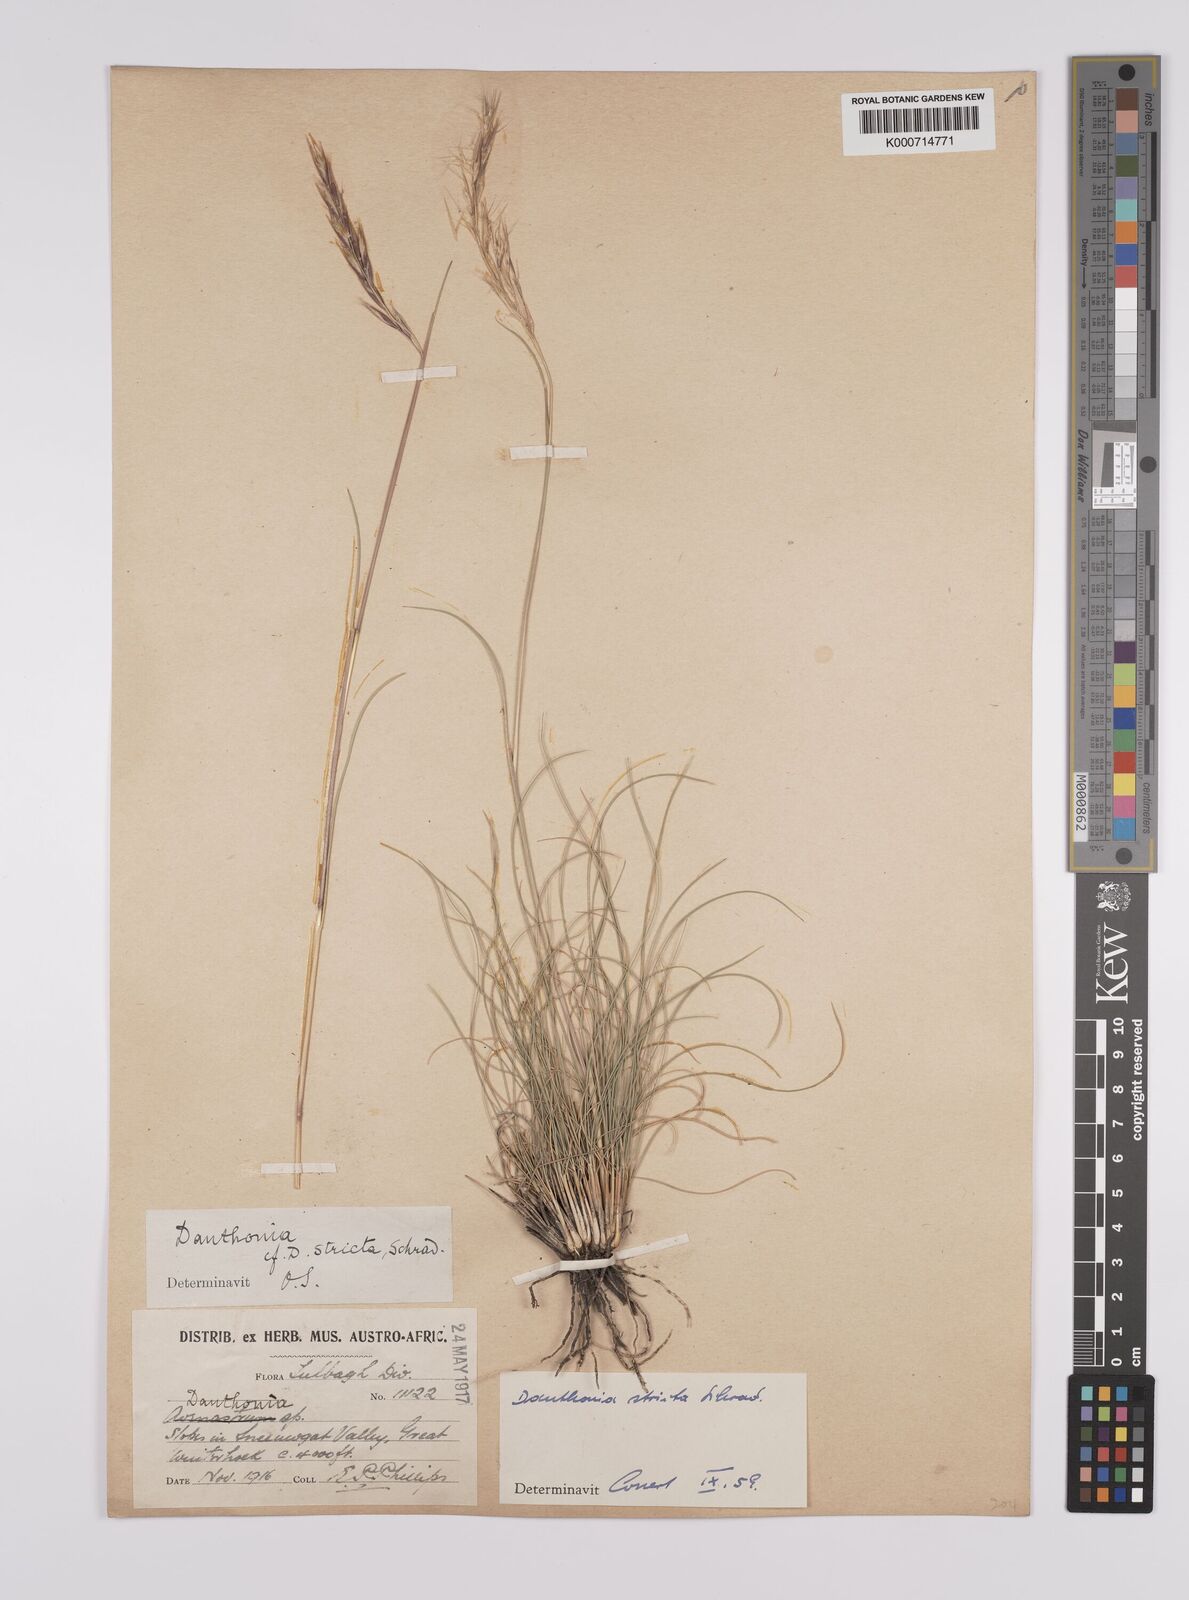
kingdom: Plantae
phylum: Tracheophyta
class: Liliopsida
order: Poales
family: Poaceae
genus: Rytidosperma
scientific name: Rytidosperma
